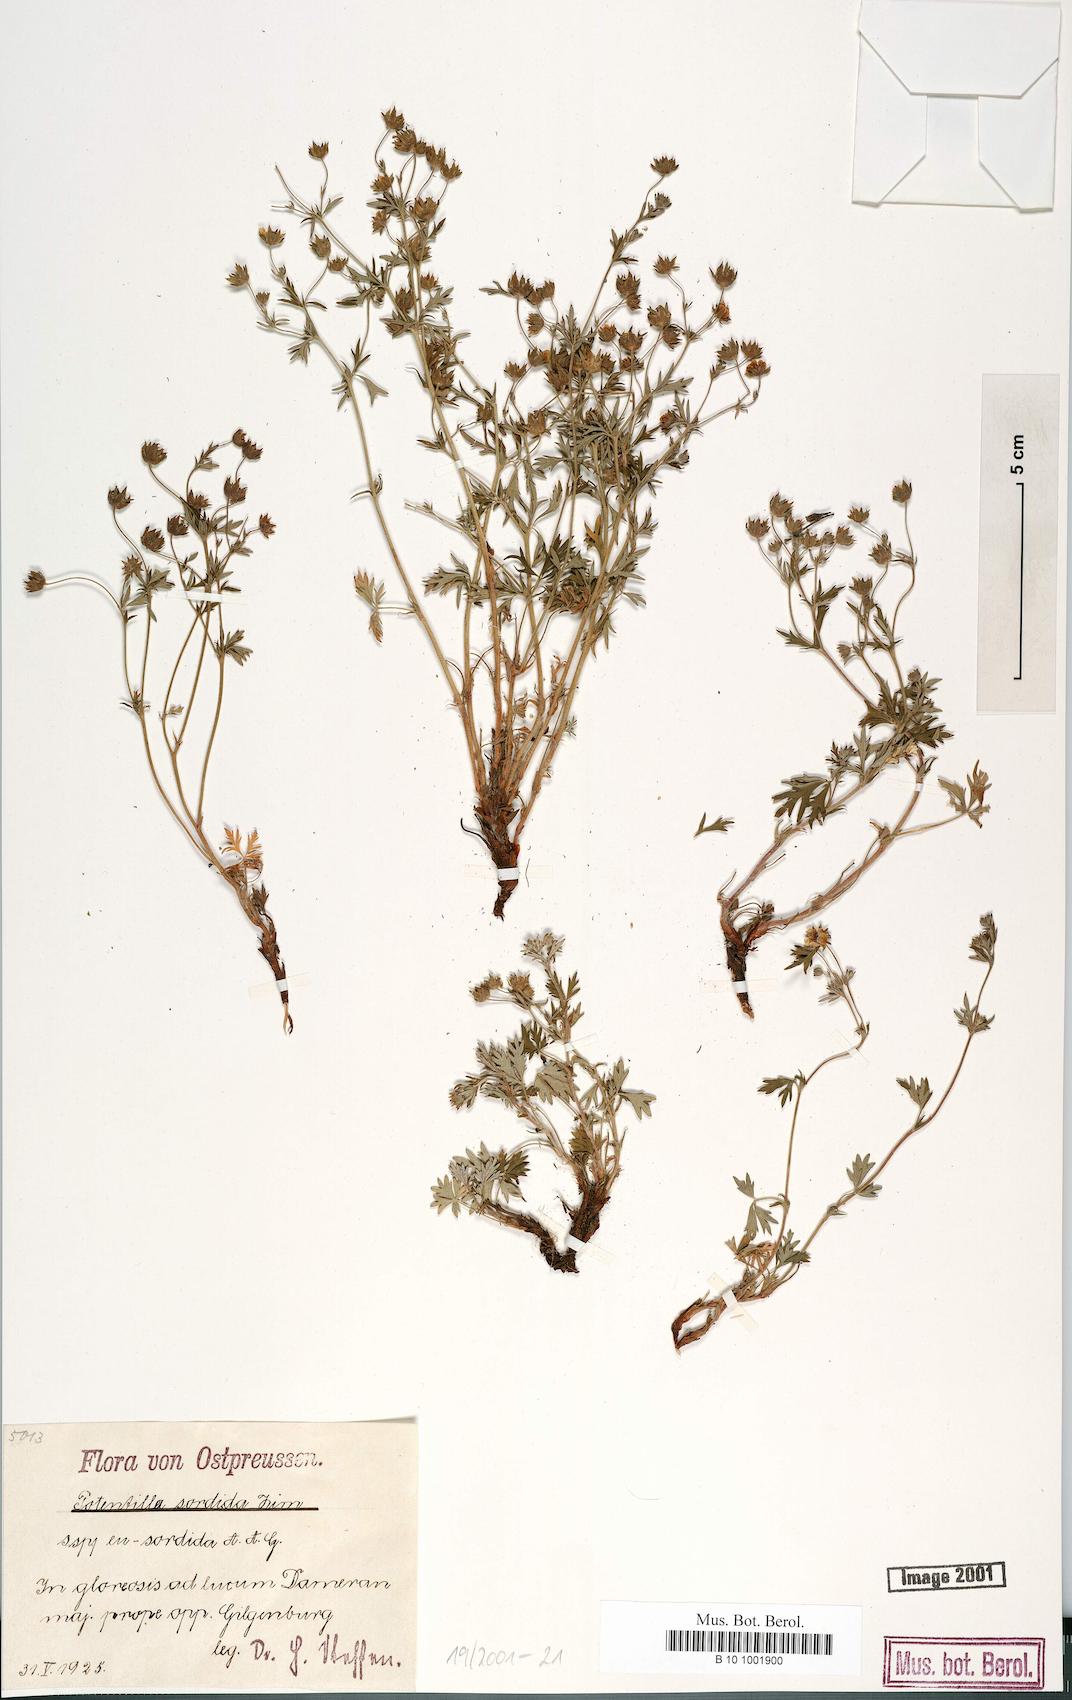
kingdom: Plantae
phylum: Tracheophyta
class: Magnoliopsida
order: Rosales
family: Rosaceae
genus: Potentilla
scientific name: Potentilla sordida
